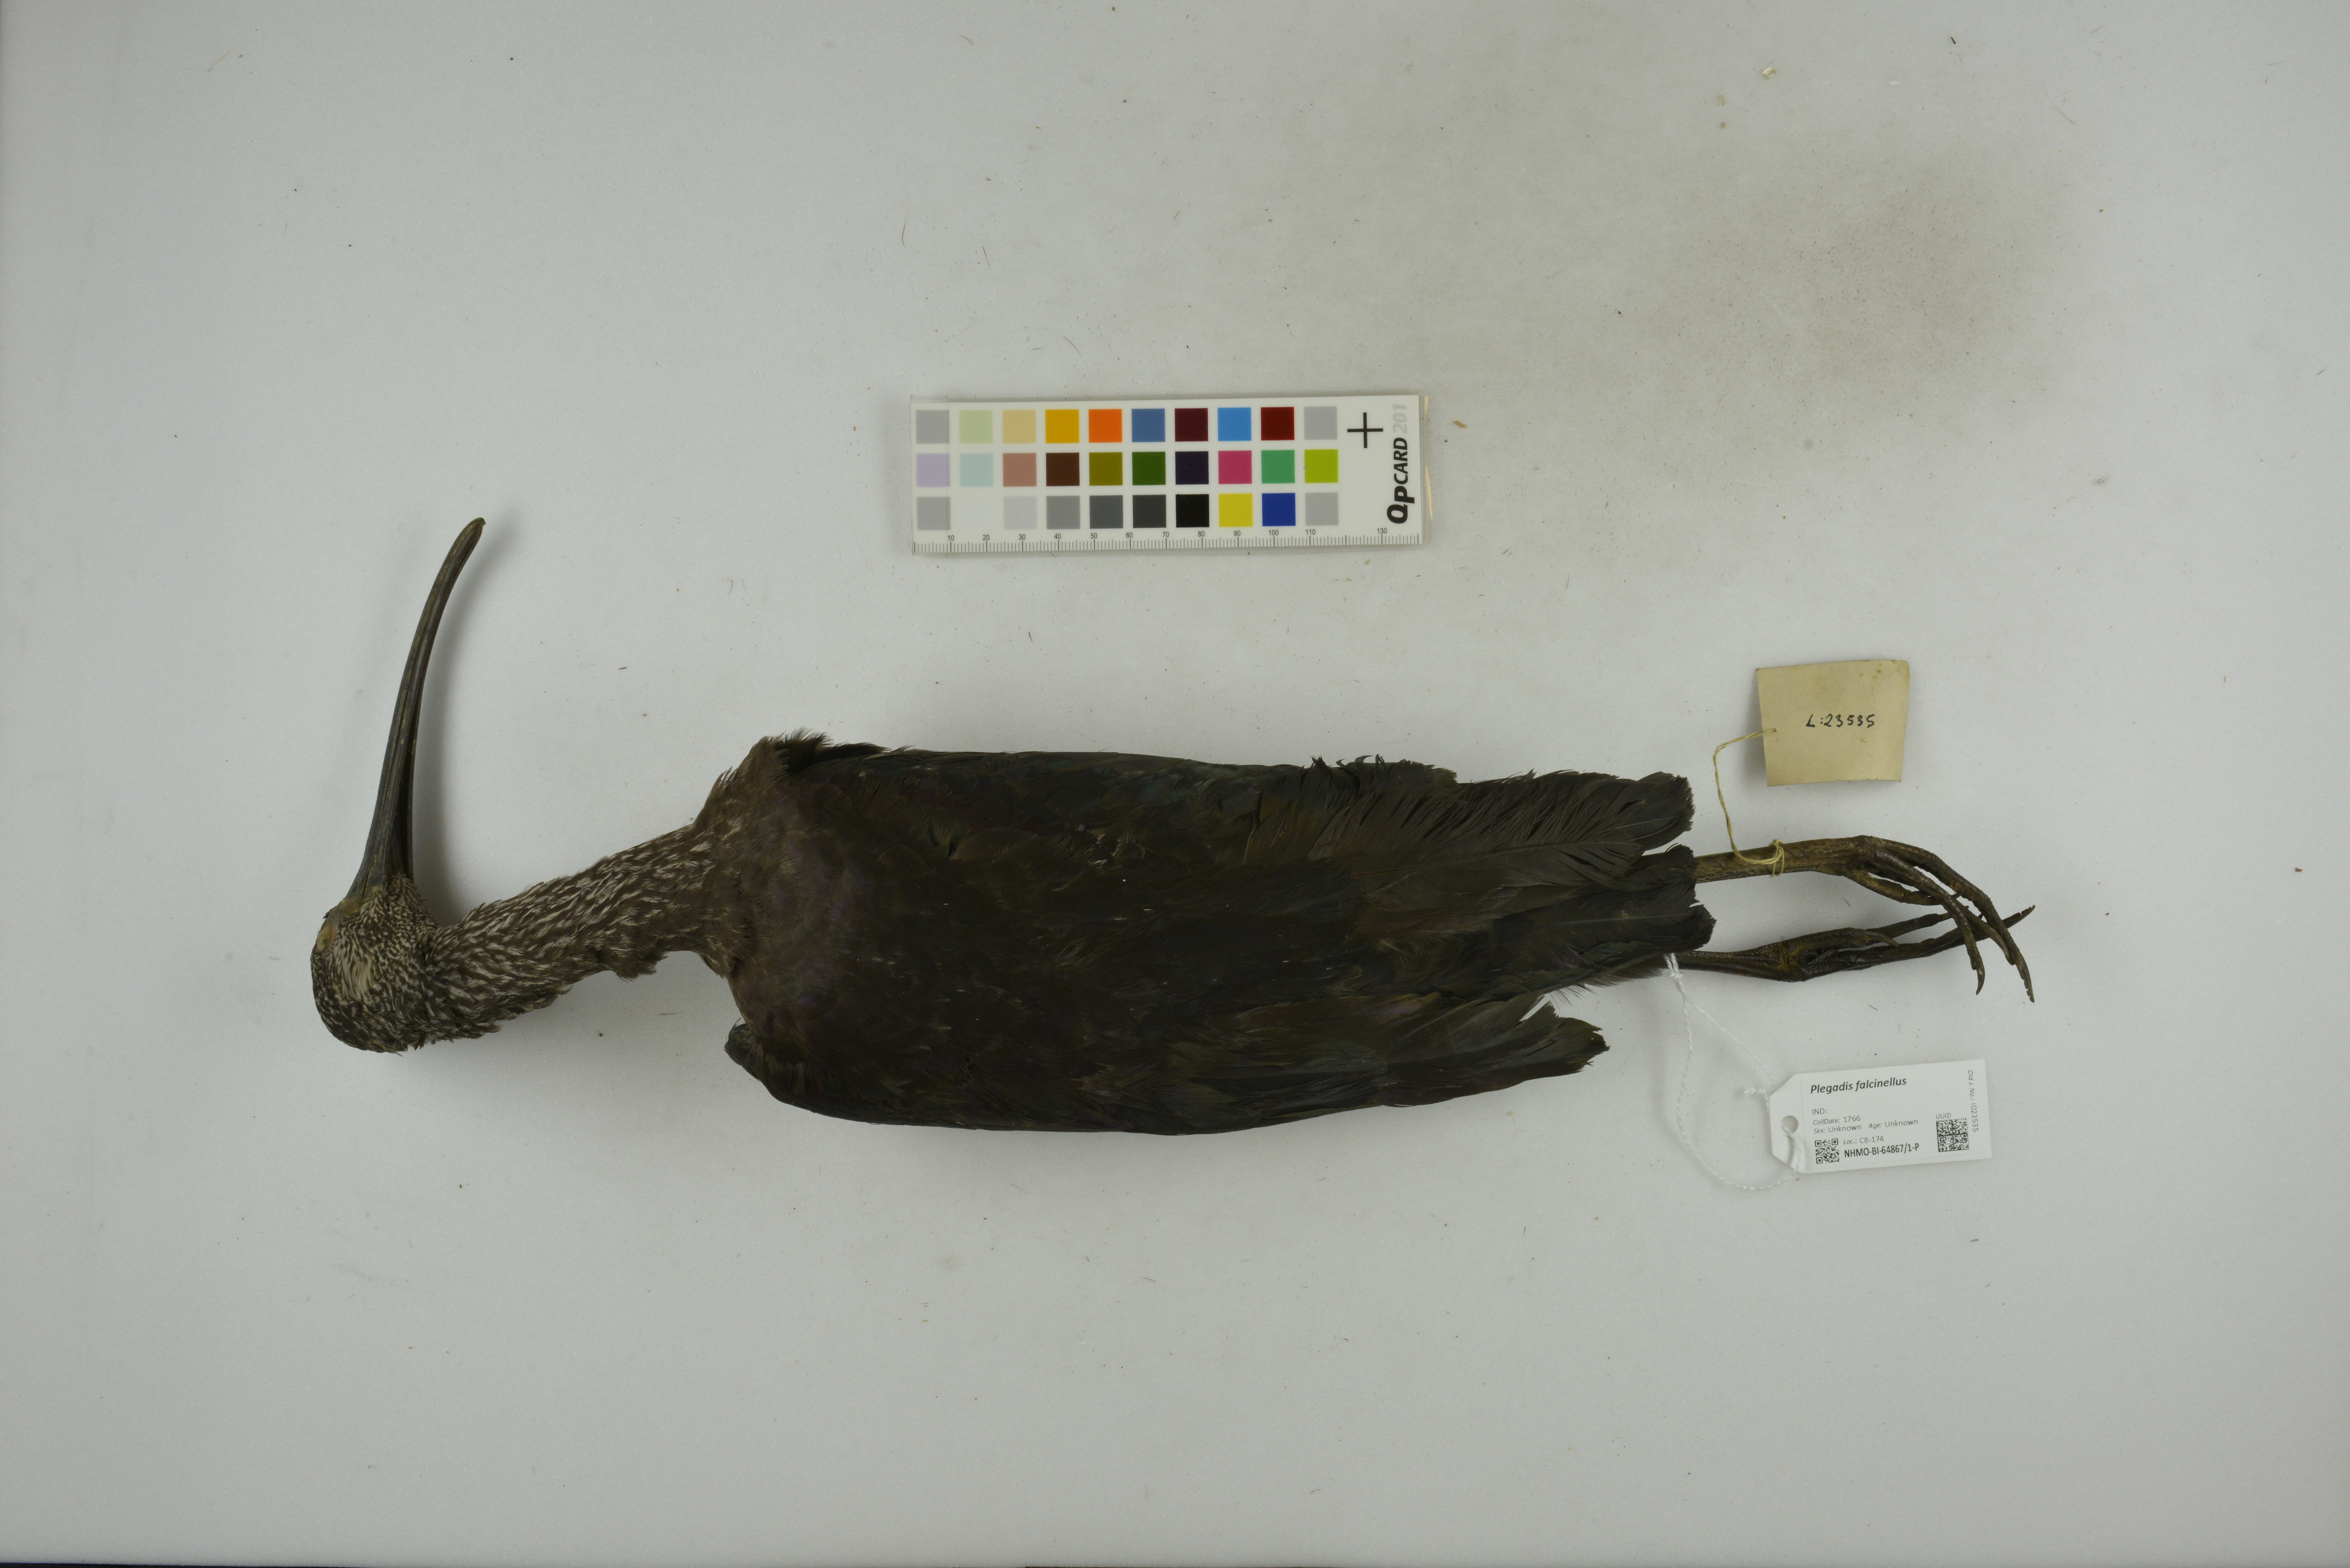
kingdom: Animalia
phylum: Chordata
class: Aves
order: Pelecaniformes
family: Threskiornithidae
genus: Plegadis
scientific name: Plegadis falcinellus
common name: Glossy ibis
